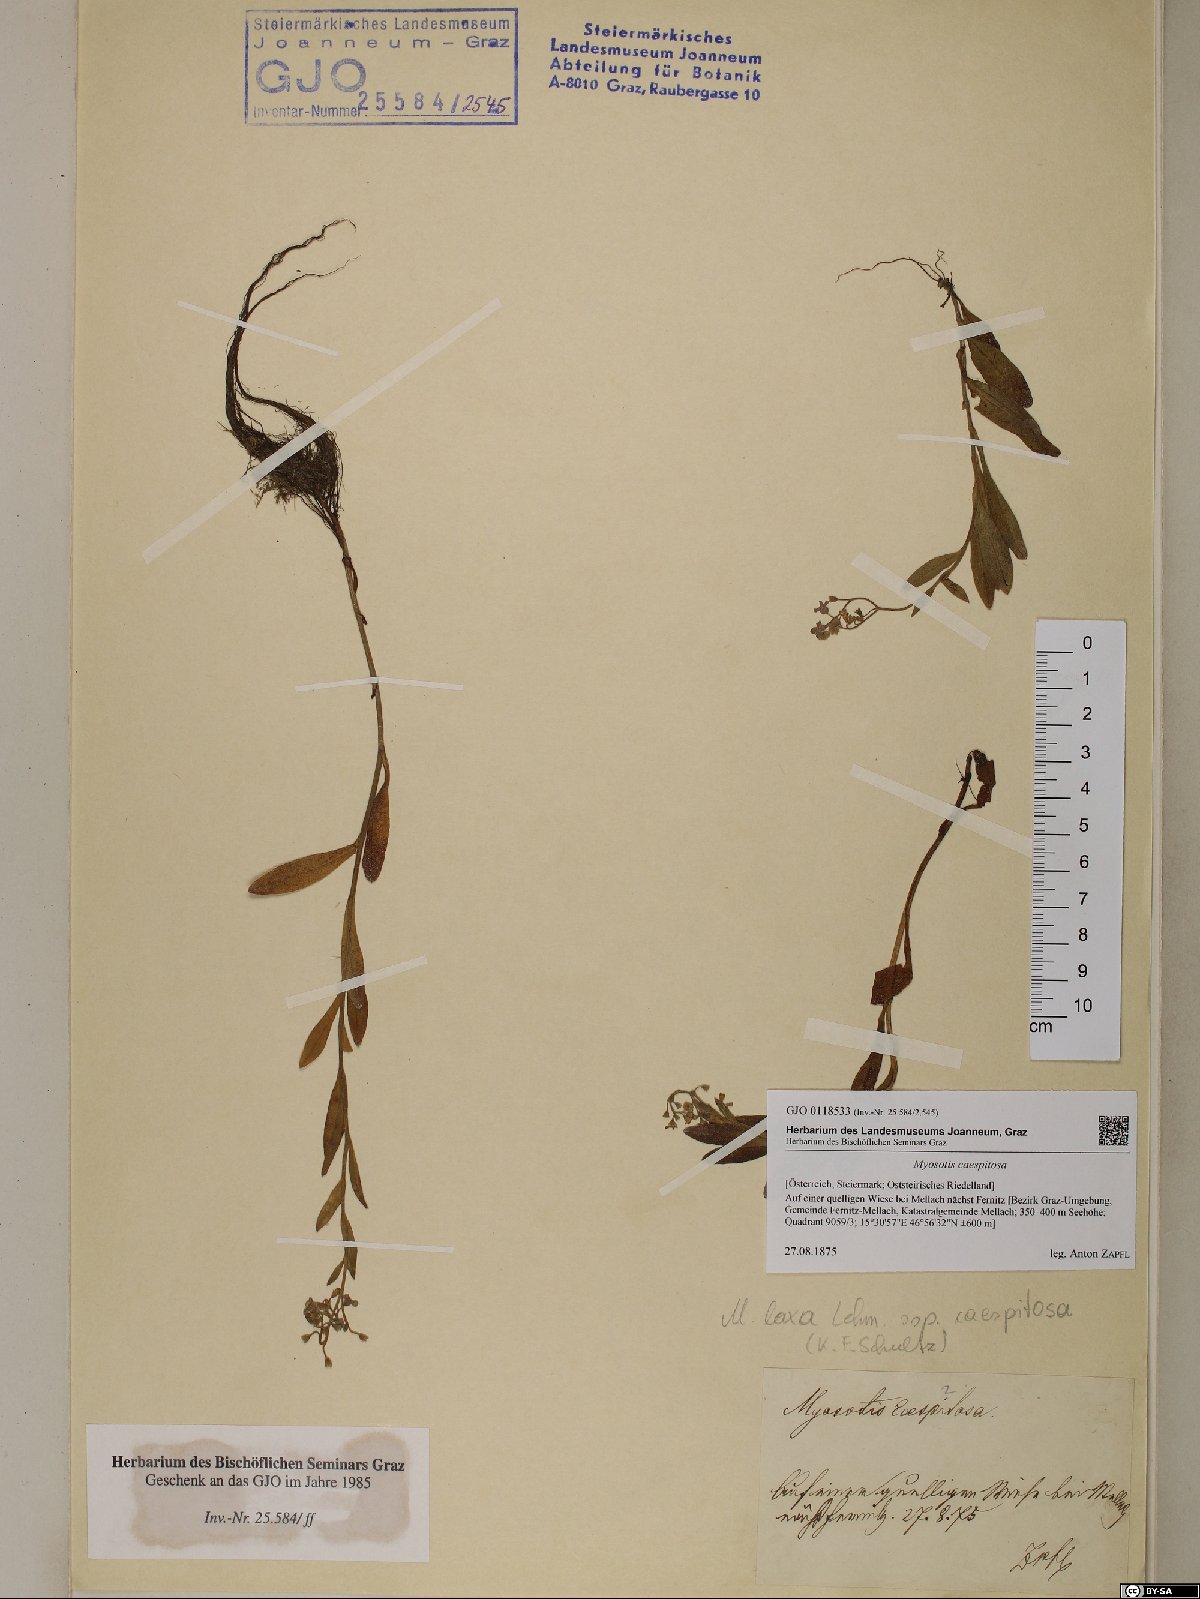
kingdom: Plantae
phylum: Tracheophyta
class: Magnoliopsida
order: Boraginales
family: Boraginaceae
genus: Myosotis
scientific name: Myosotis laxa
